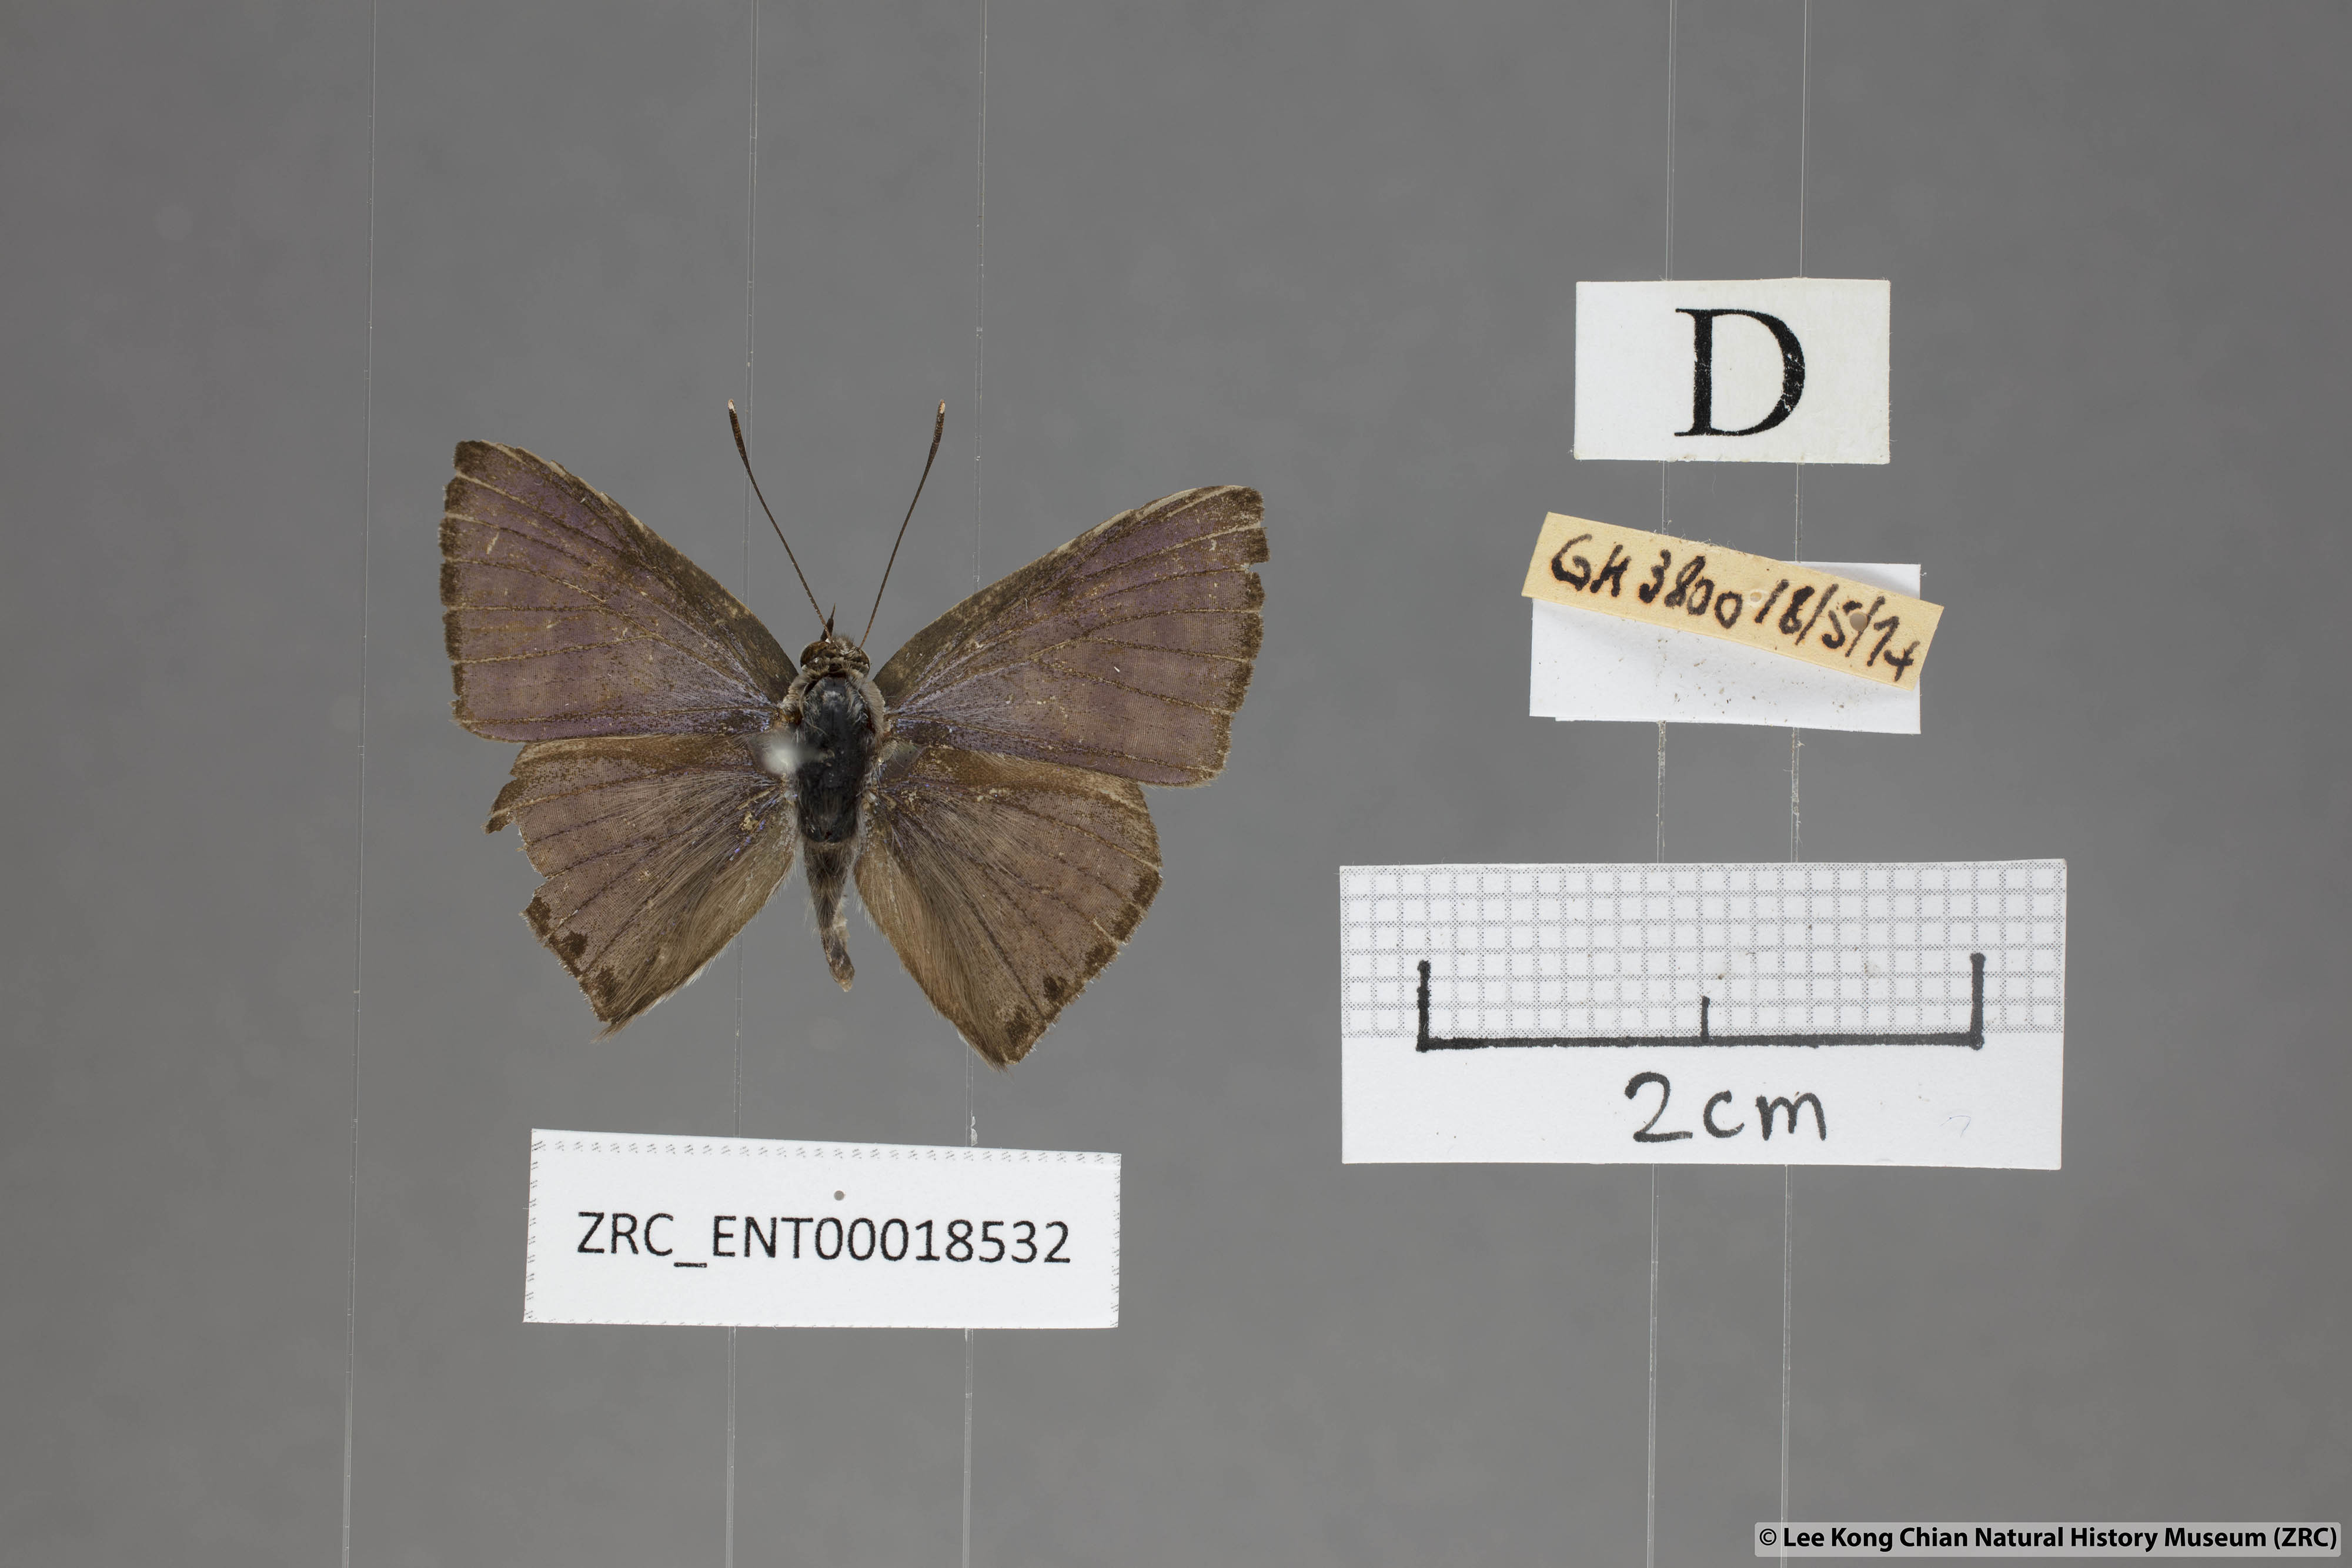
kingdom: Animalia
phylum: Arthropoda
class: Insecta
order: Lepidoptera
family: Lycaenidae
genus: Niphanda
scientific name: Niphanda tessellata
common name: Large pointed pierrot
